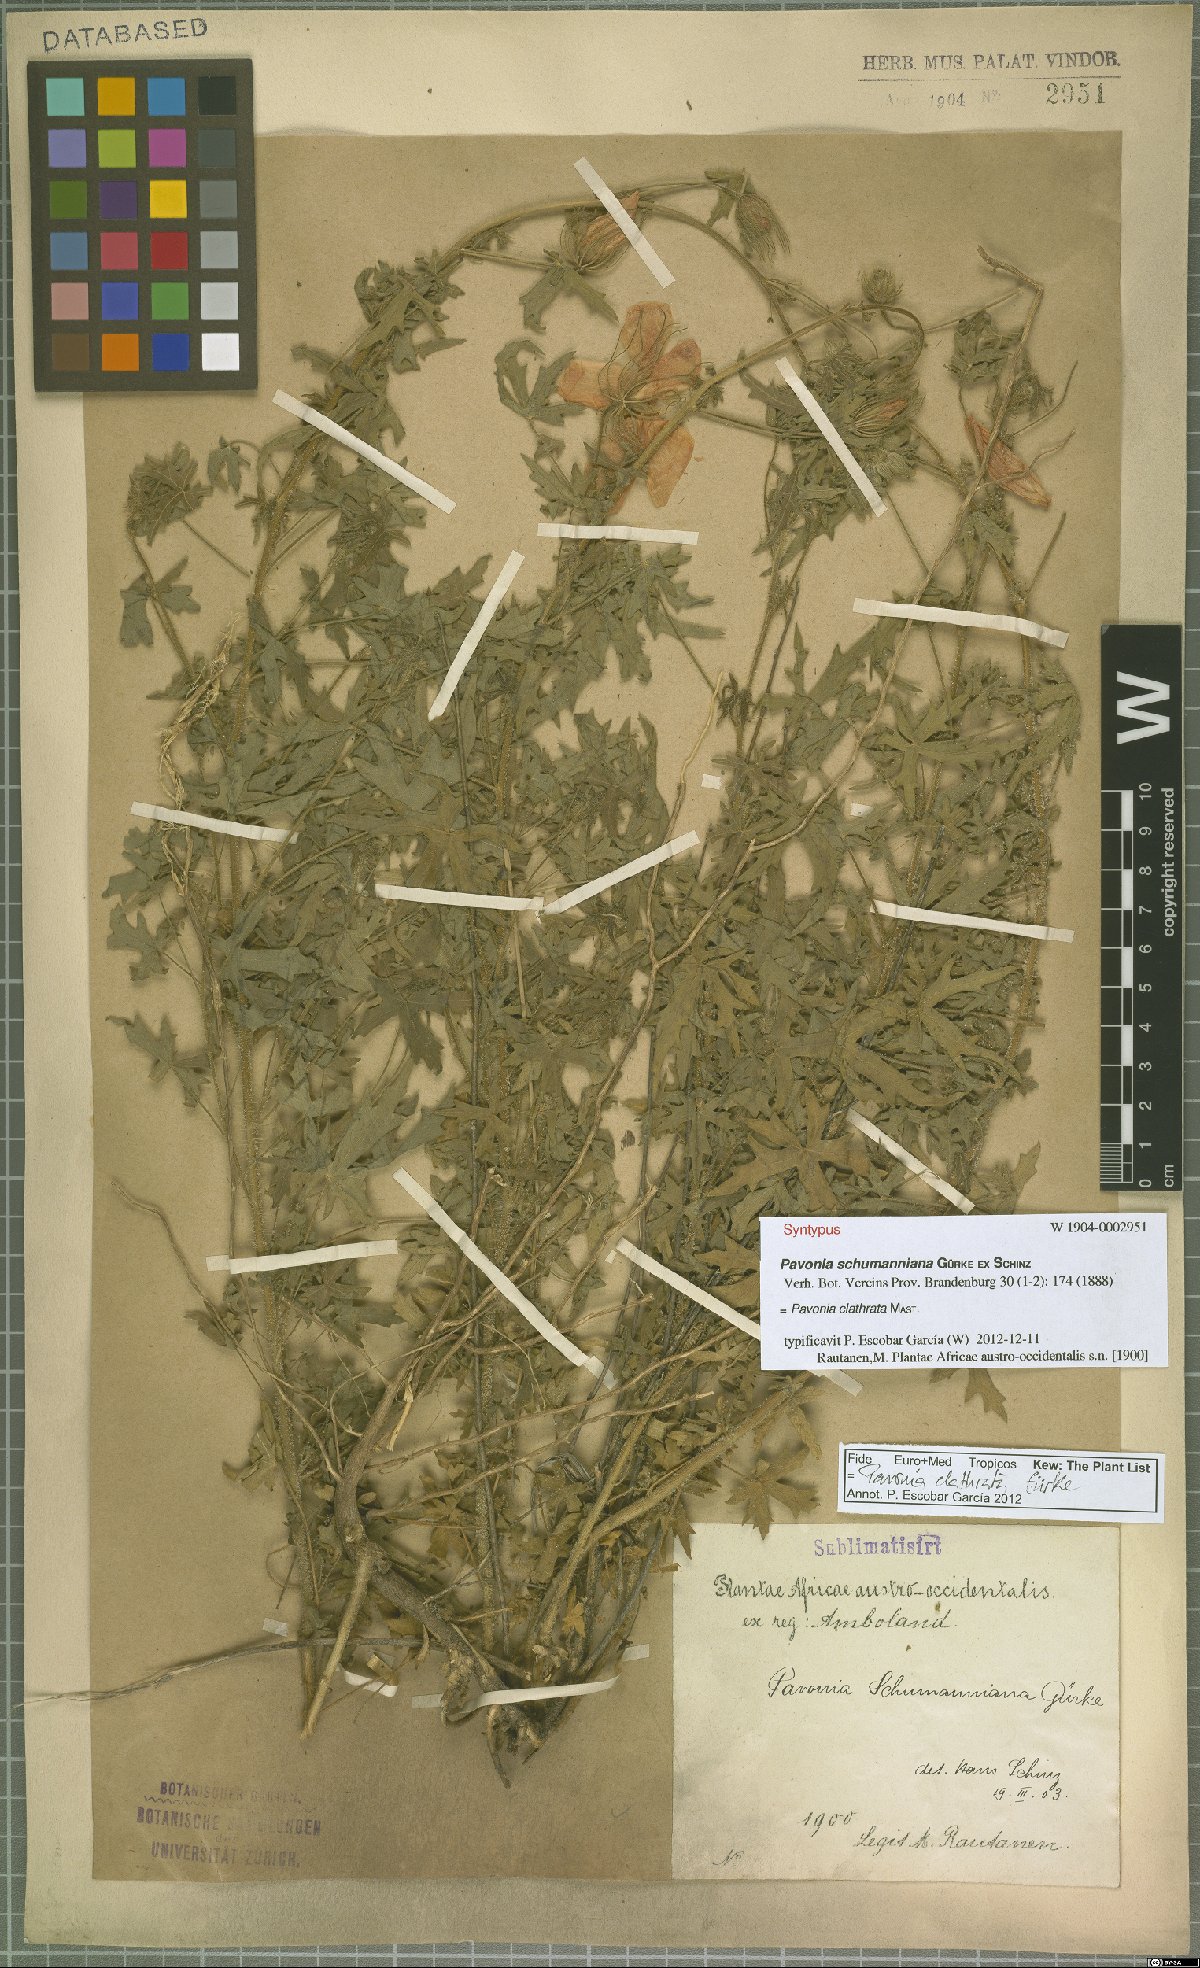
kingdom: Plantae
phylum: Tracheophyta
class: Magnoliopsida
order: Malvales
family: Malvaceae
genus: Pavonia
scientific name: Pavonia clathrata
